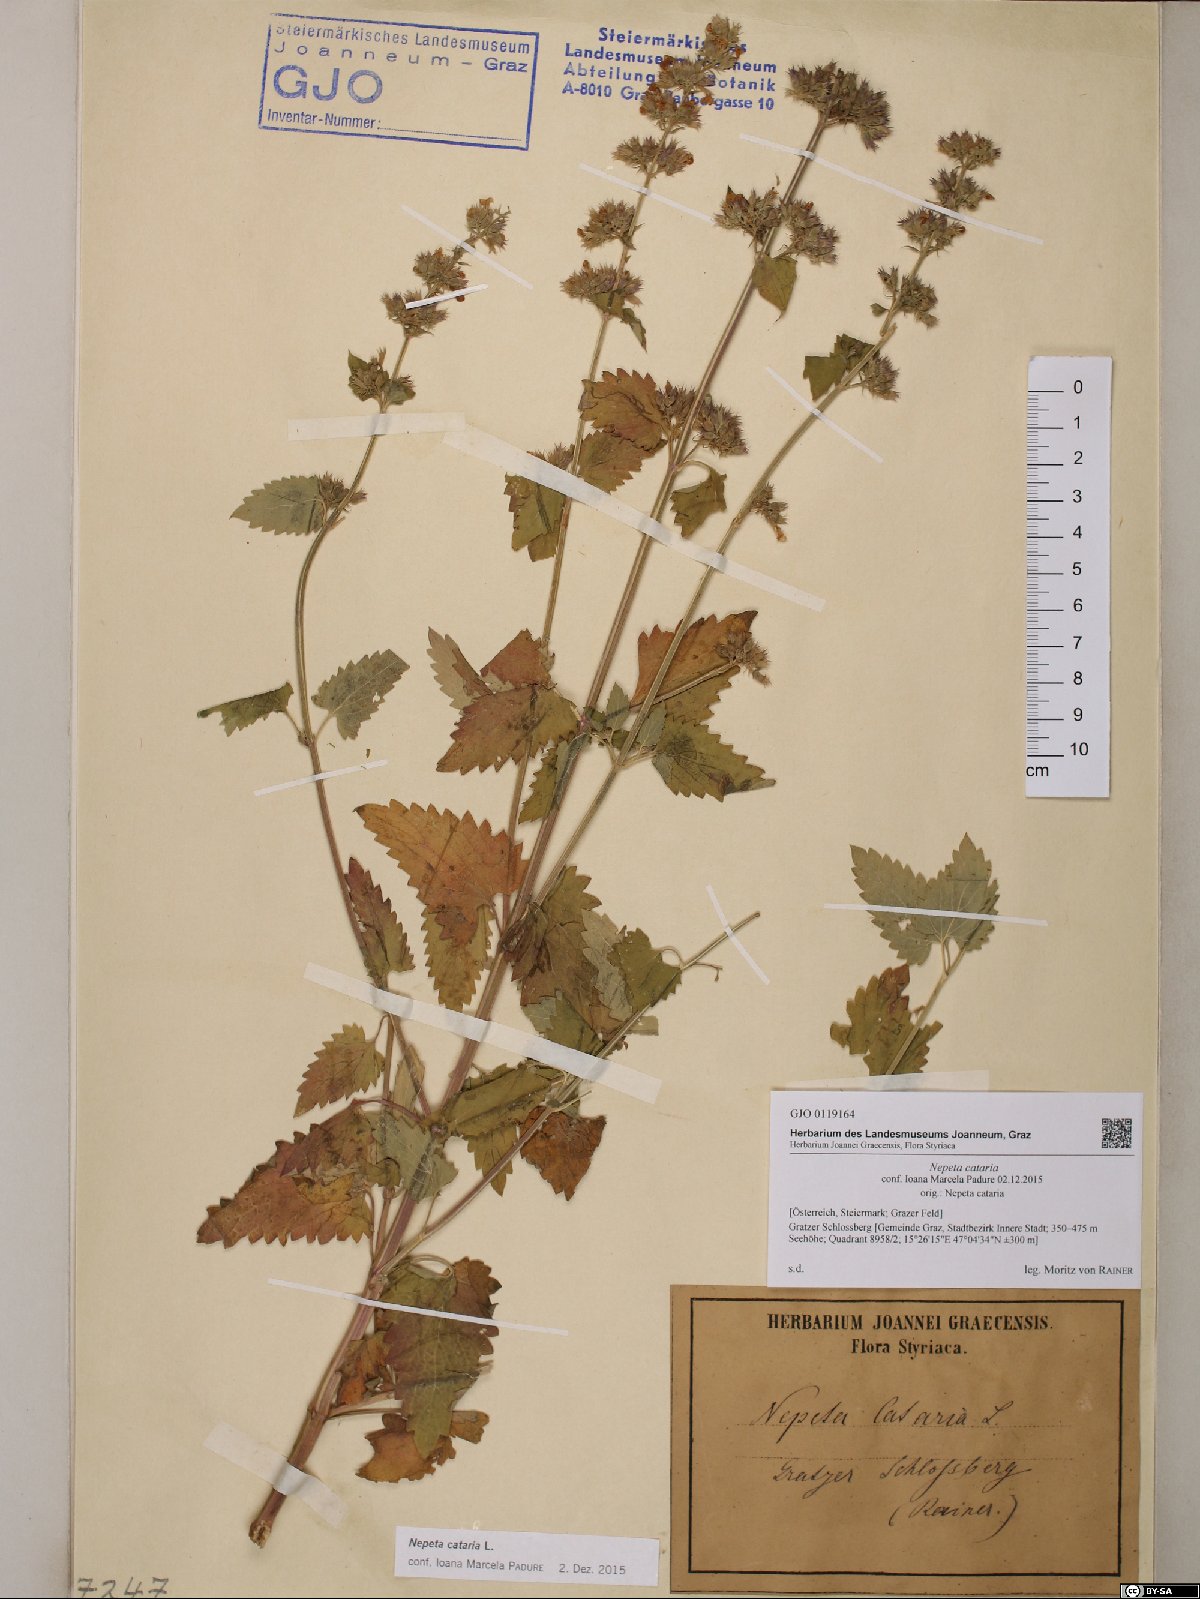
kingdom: Plantae
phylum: Tracheophyta
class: Magnoliopsida
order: Lamiales
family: Lamiaceae
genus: Nepeta
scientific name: Nepeta cataria
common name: Catnip
